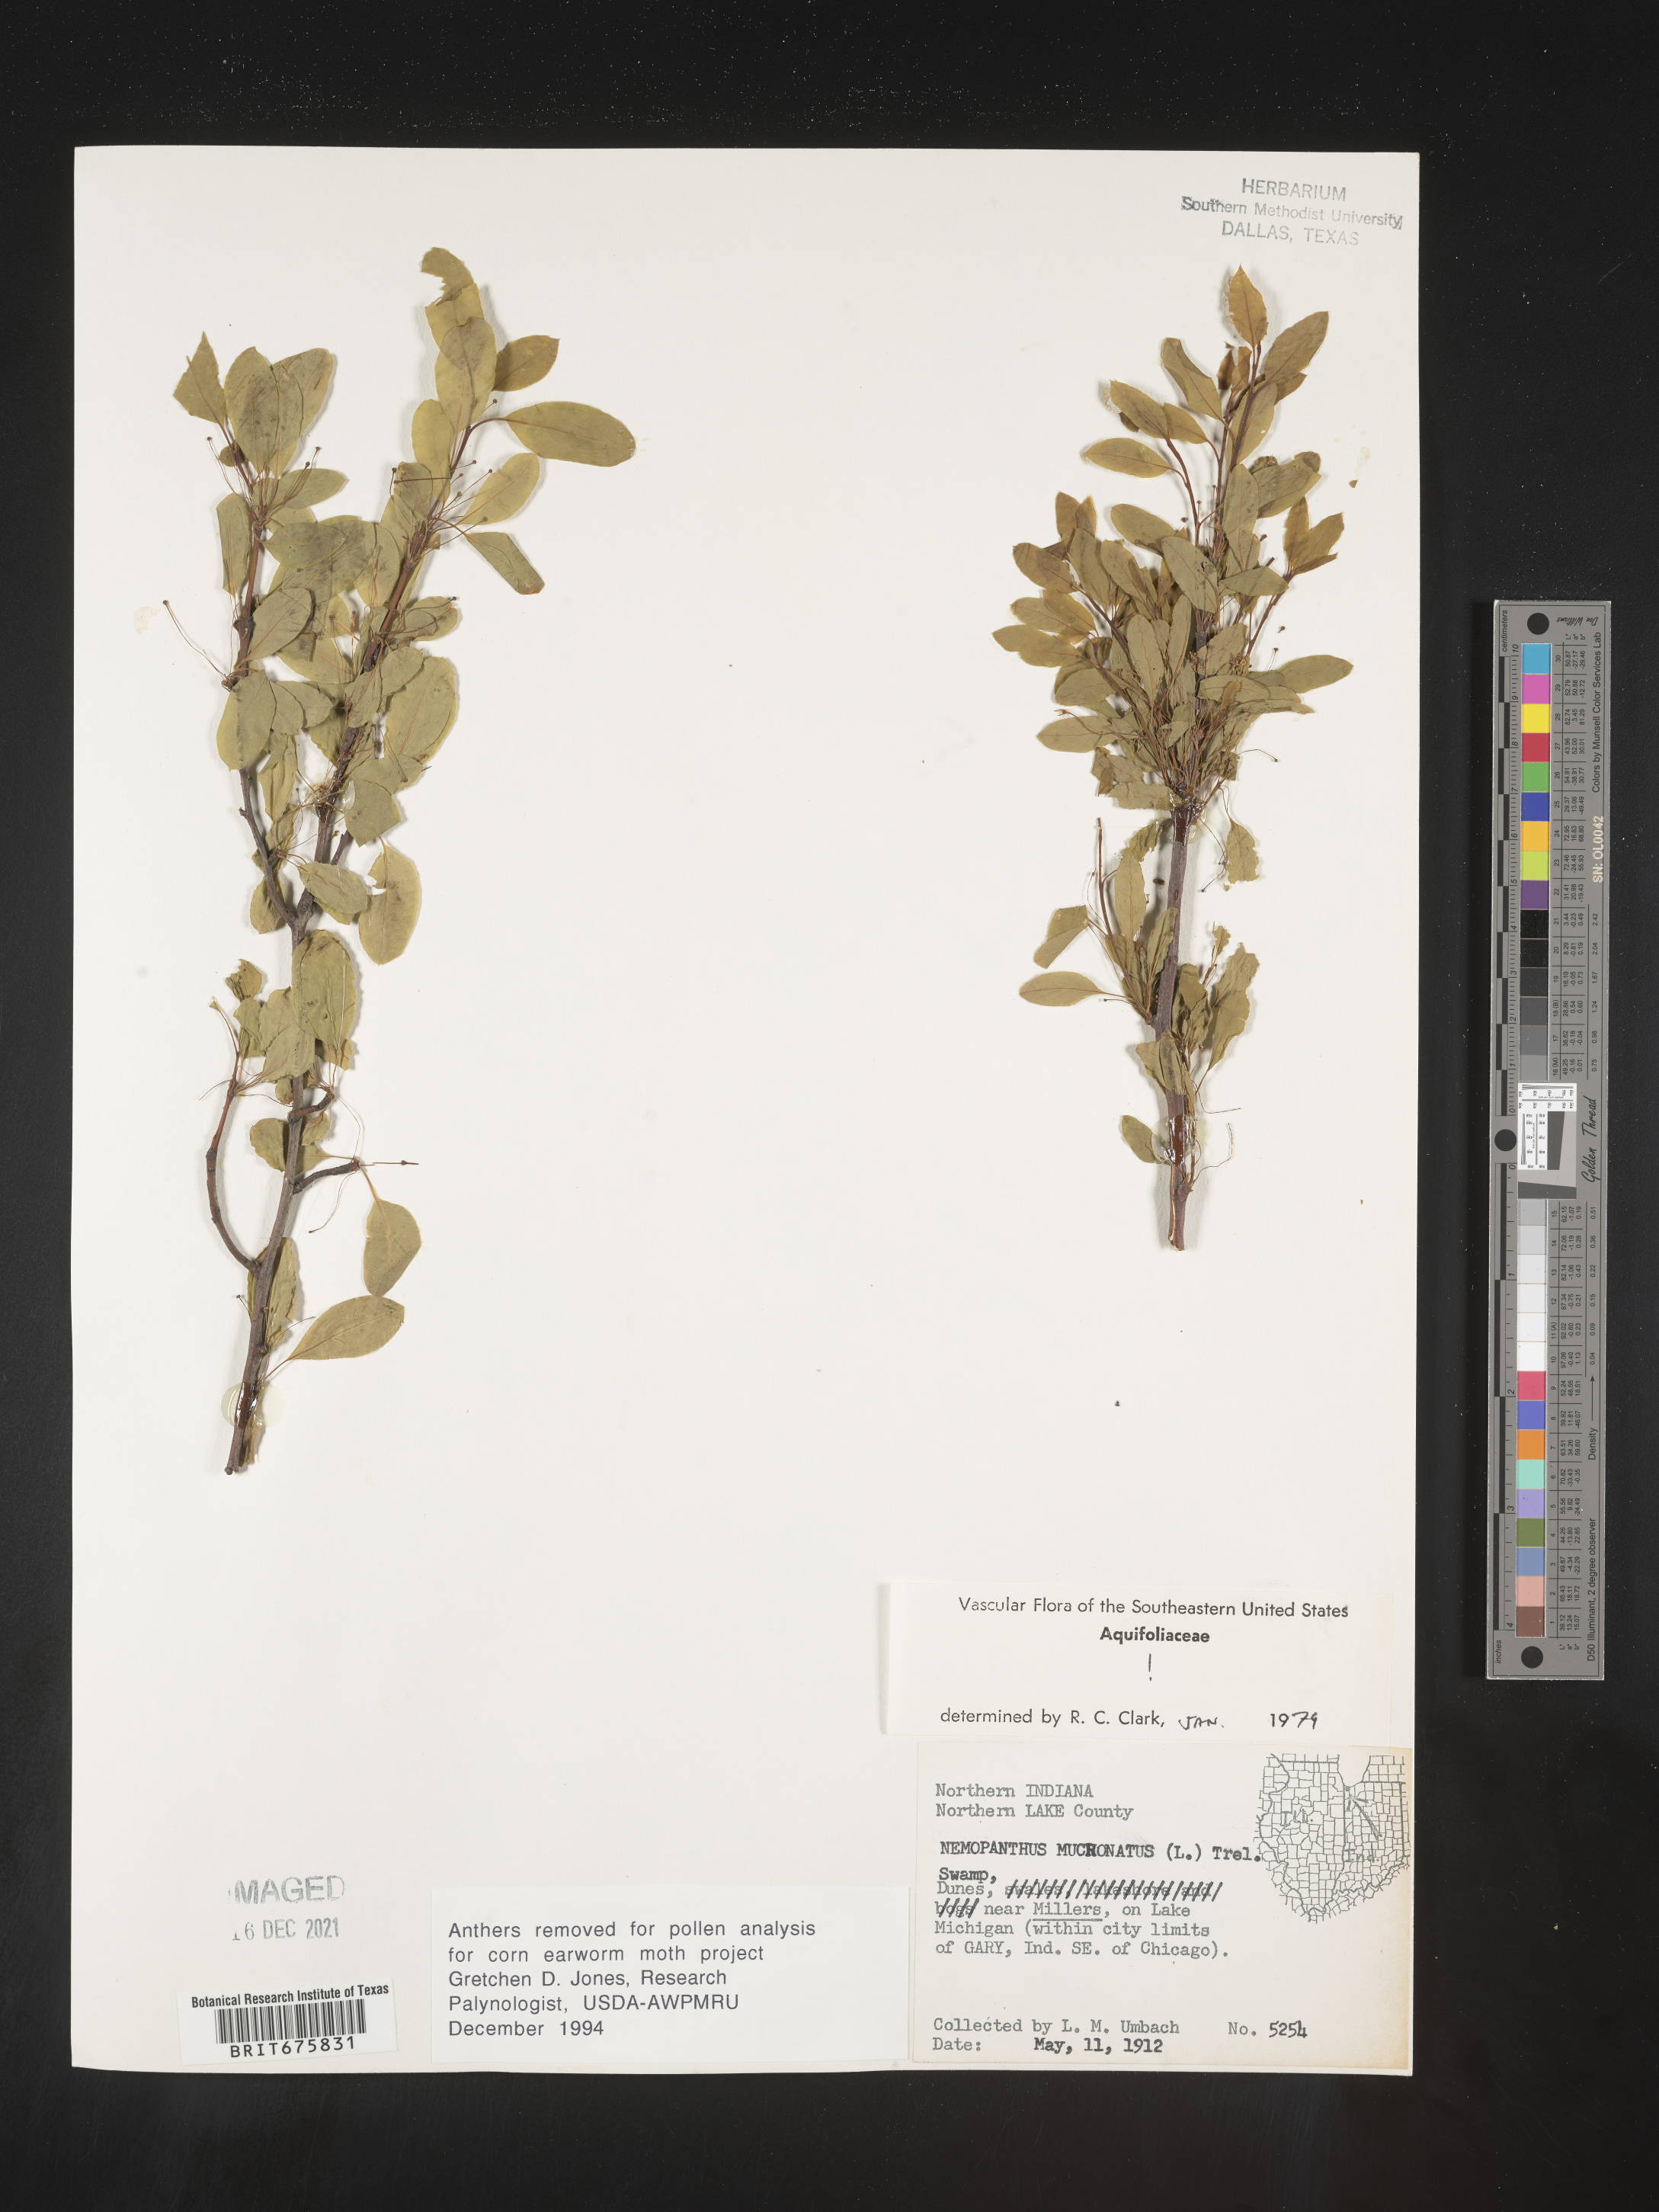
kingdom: Plantae
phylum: Tracheophyta
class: Magnoliopsida
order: Aquifoliales
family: Aquifoliaceae
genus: Ilex
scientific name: Ilex mucronata
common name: Catberry
